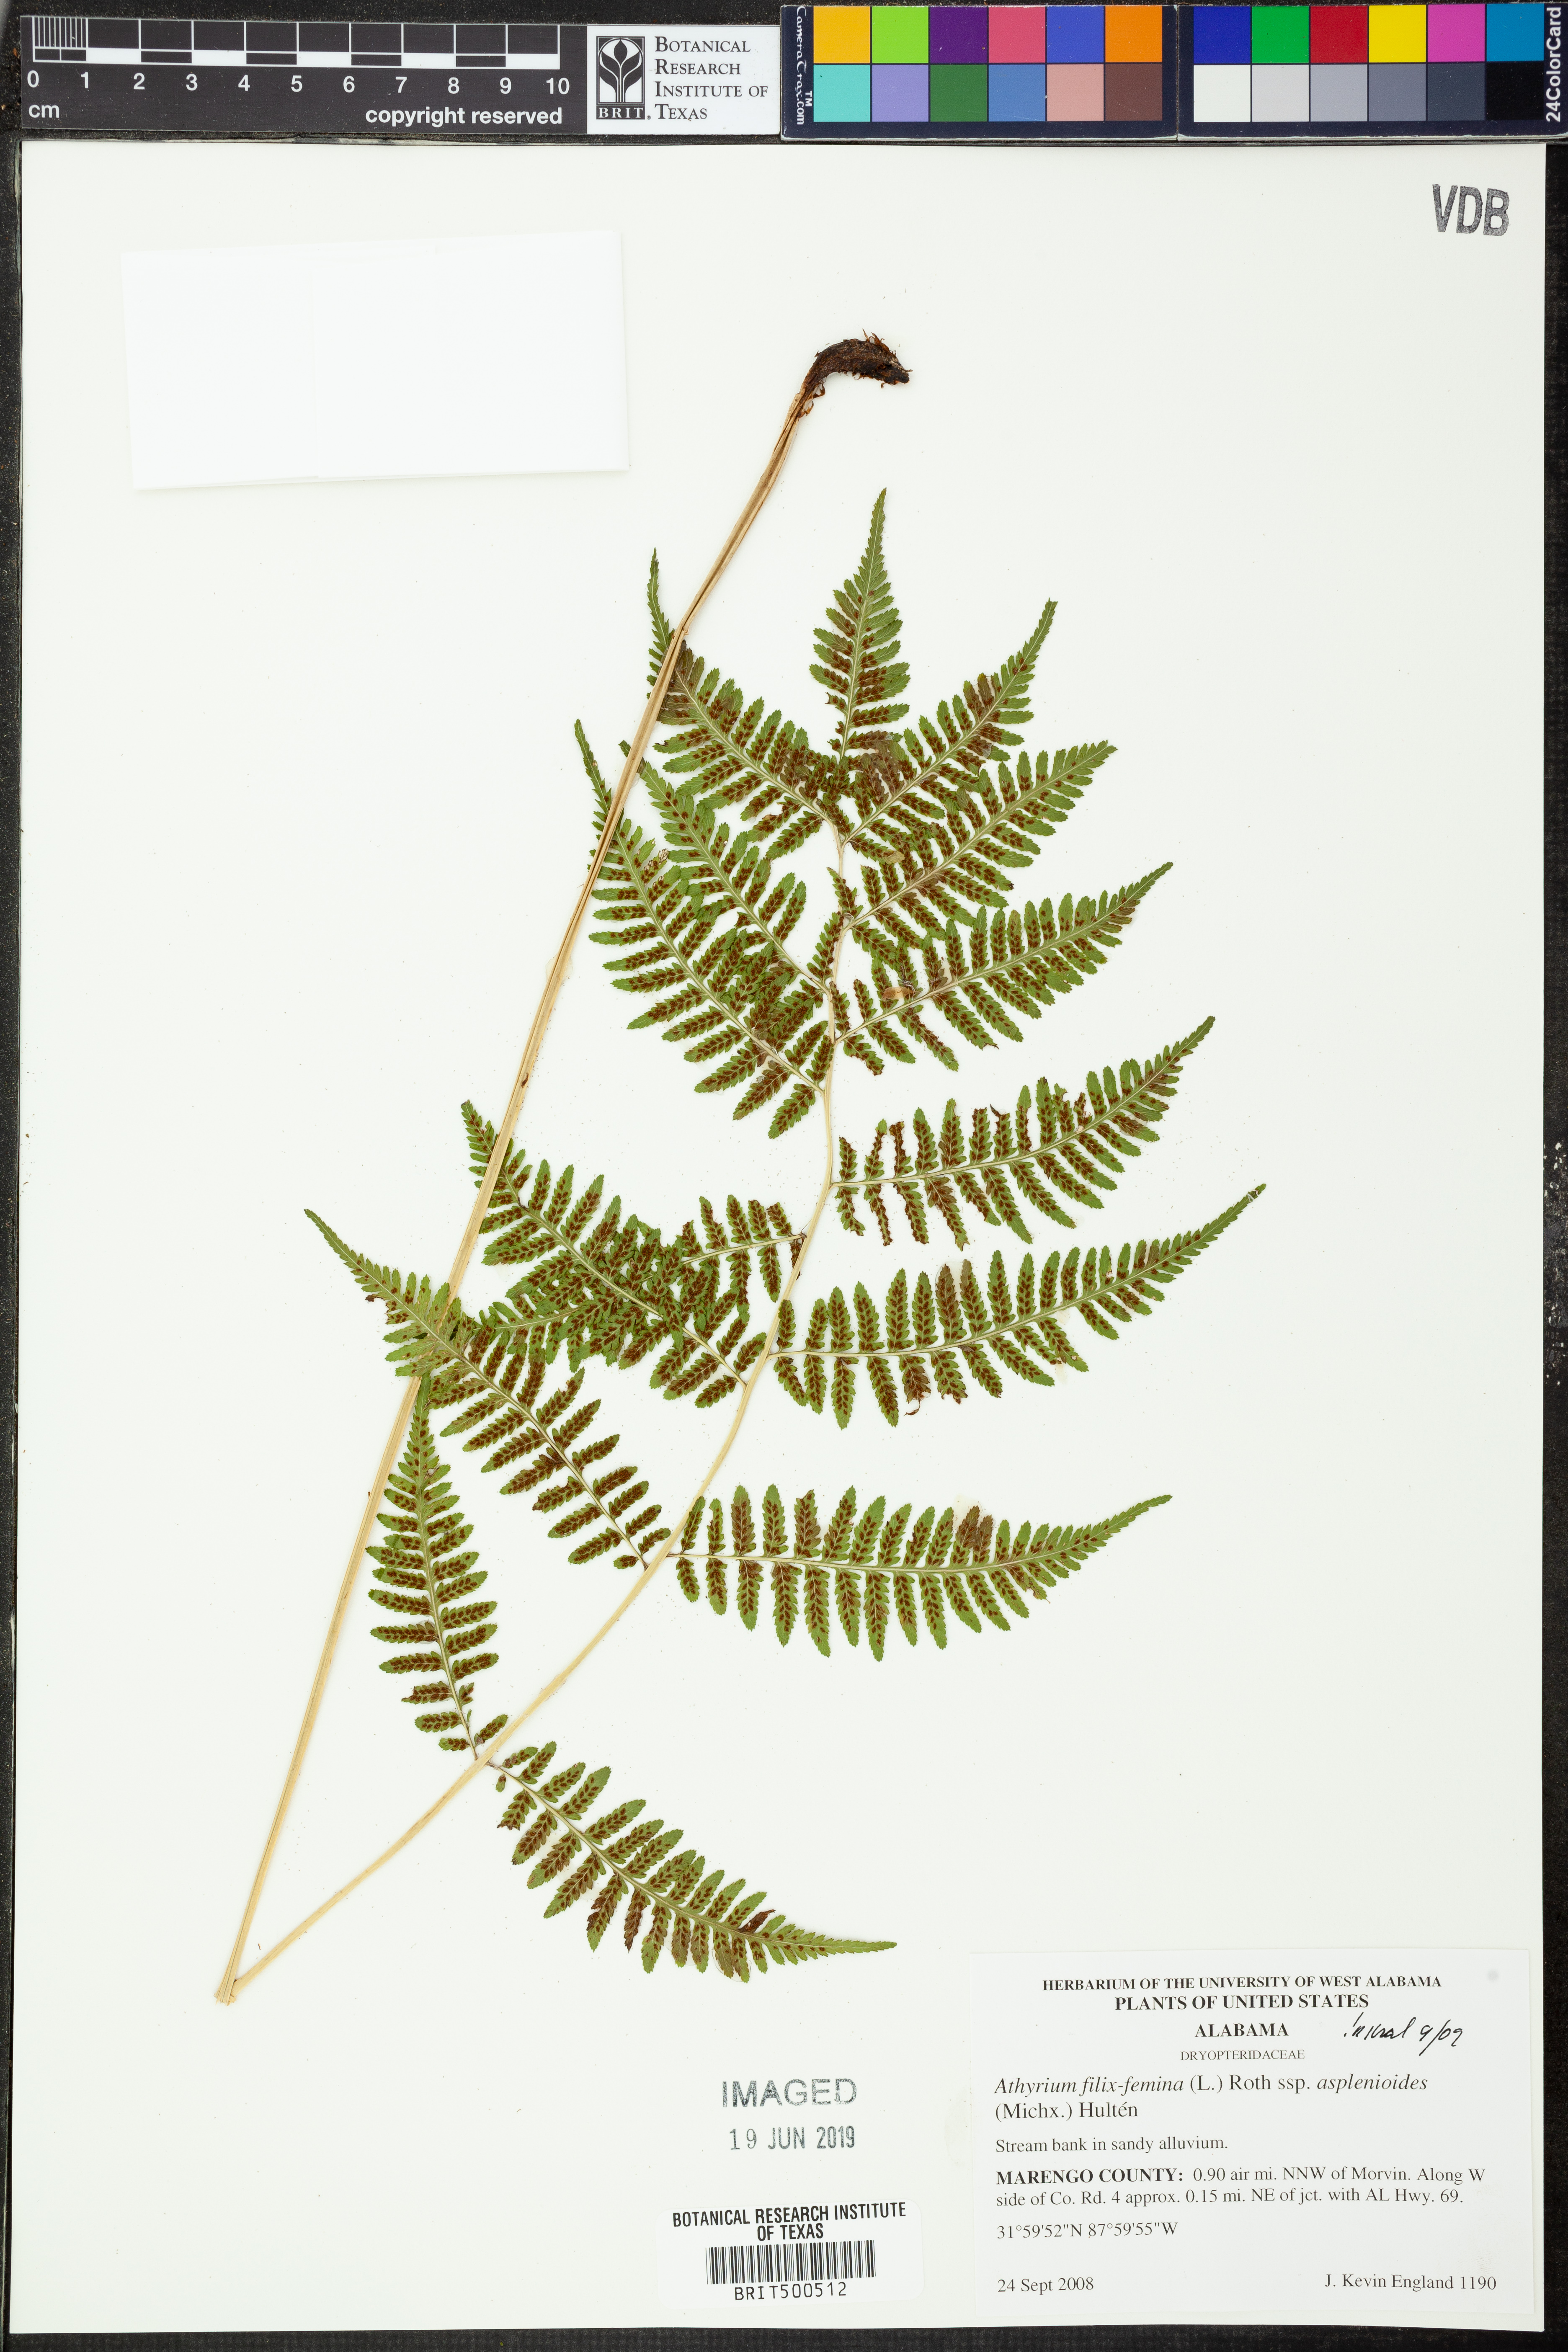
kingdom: Plantae
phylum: Tracheophyta
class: Polypodiopsida
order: Polypodiales
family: Athyriaceae
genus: Athyrium
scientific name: Athyrium asplenioides
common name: Southern lady fern
